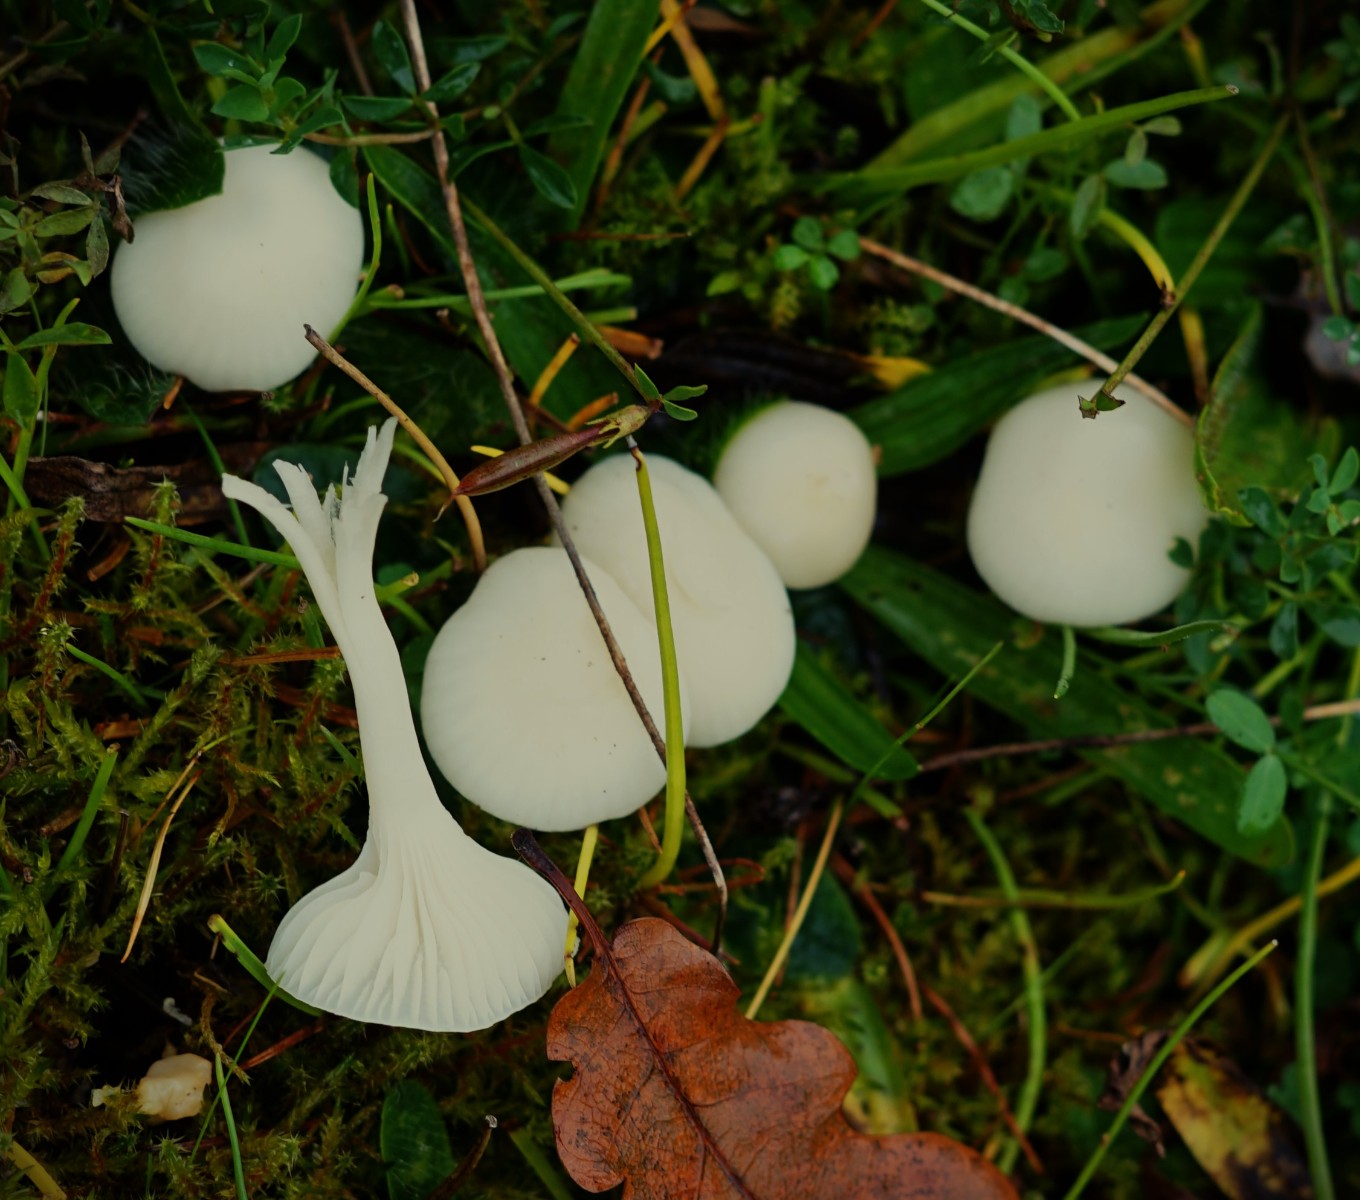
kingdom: Fungi
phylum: Basidiomycota
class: Agaricomycetes
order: Agaricales
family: Hygrophoraceae
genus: Cuphophyllus
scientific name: Cuphophyllus virgineus
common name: snehvid vokshat
